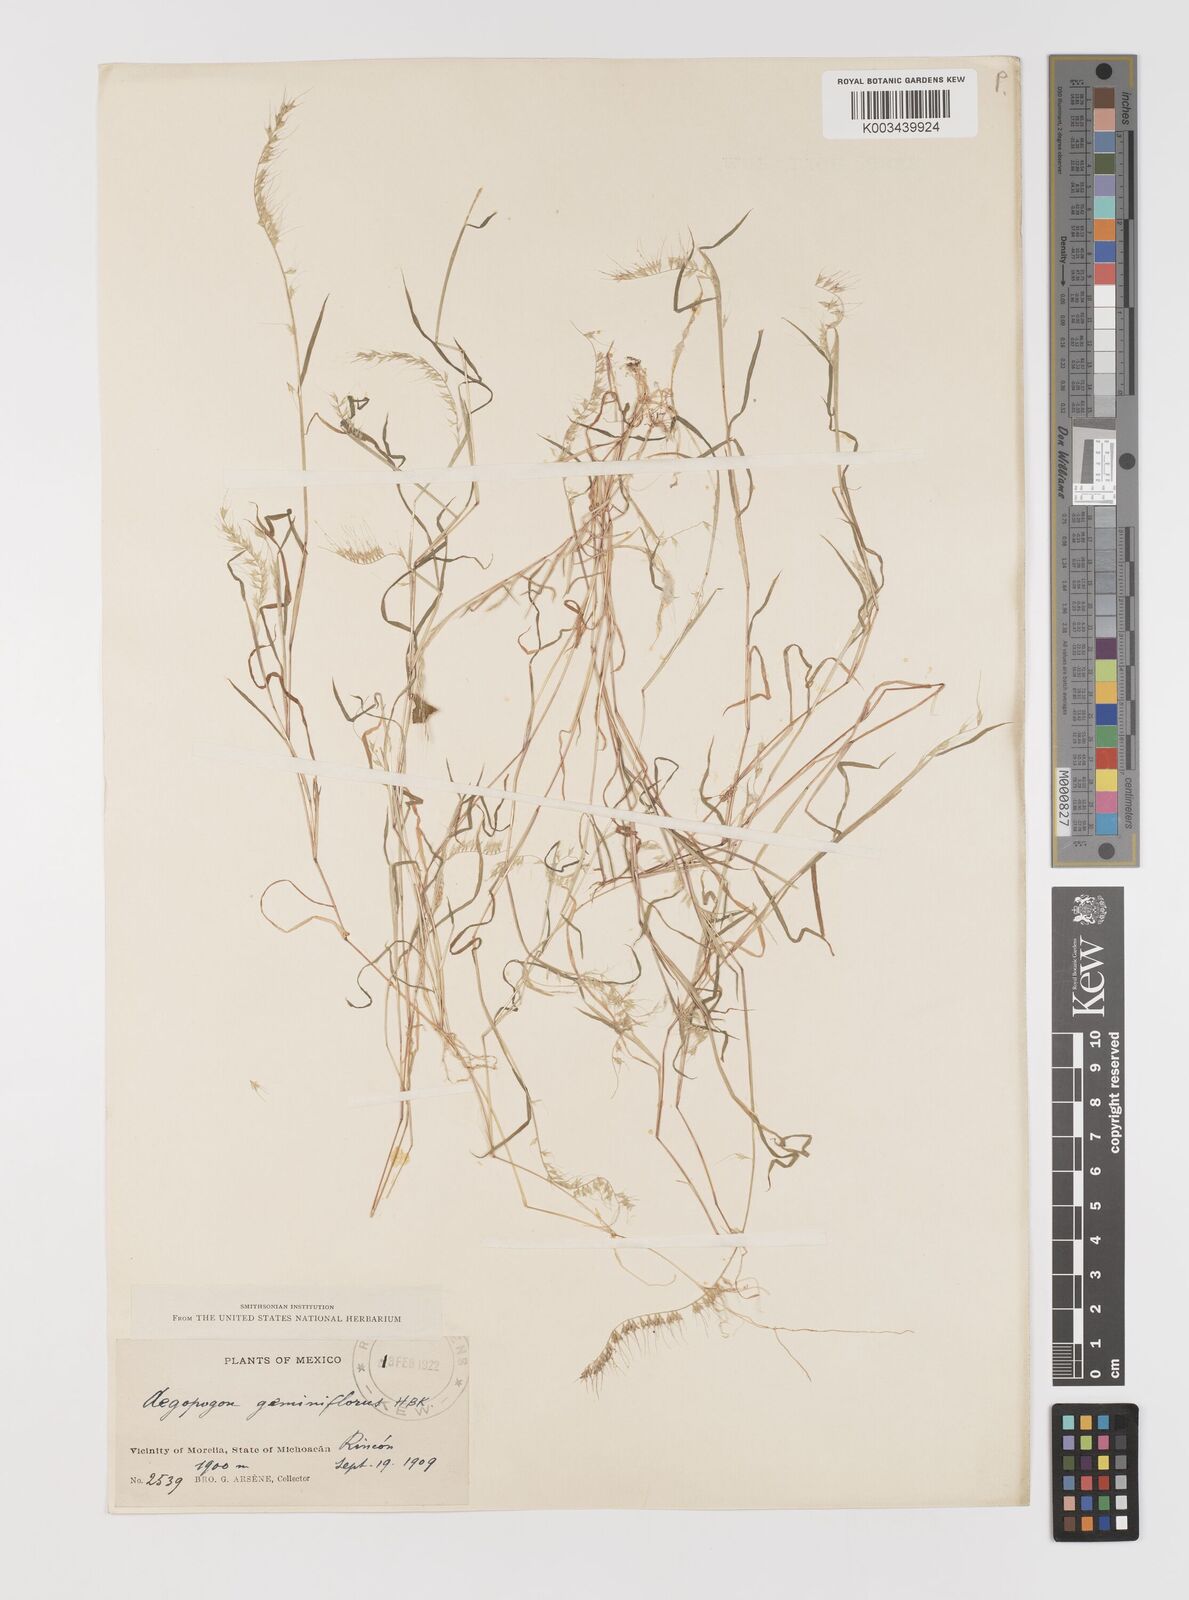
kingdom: Plantae
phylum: Tracheophyta
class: Liliopsida
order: Poales
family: Poaceae
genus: Muhlenbergia
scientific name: Muhlenbergia uniseta
